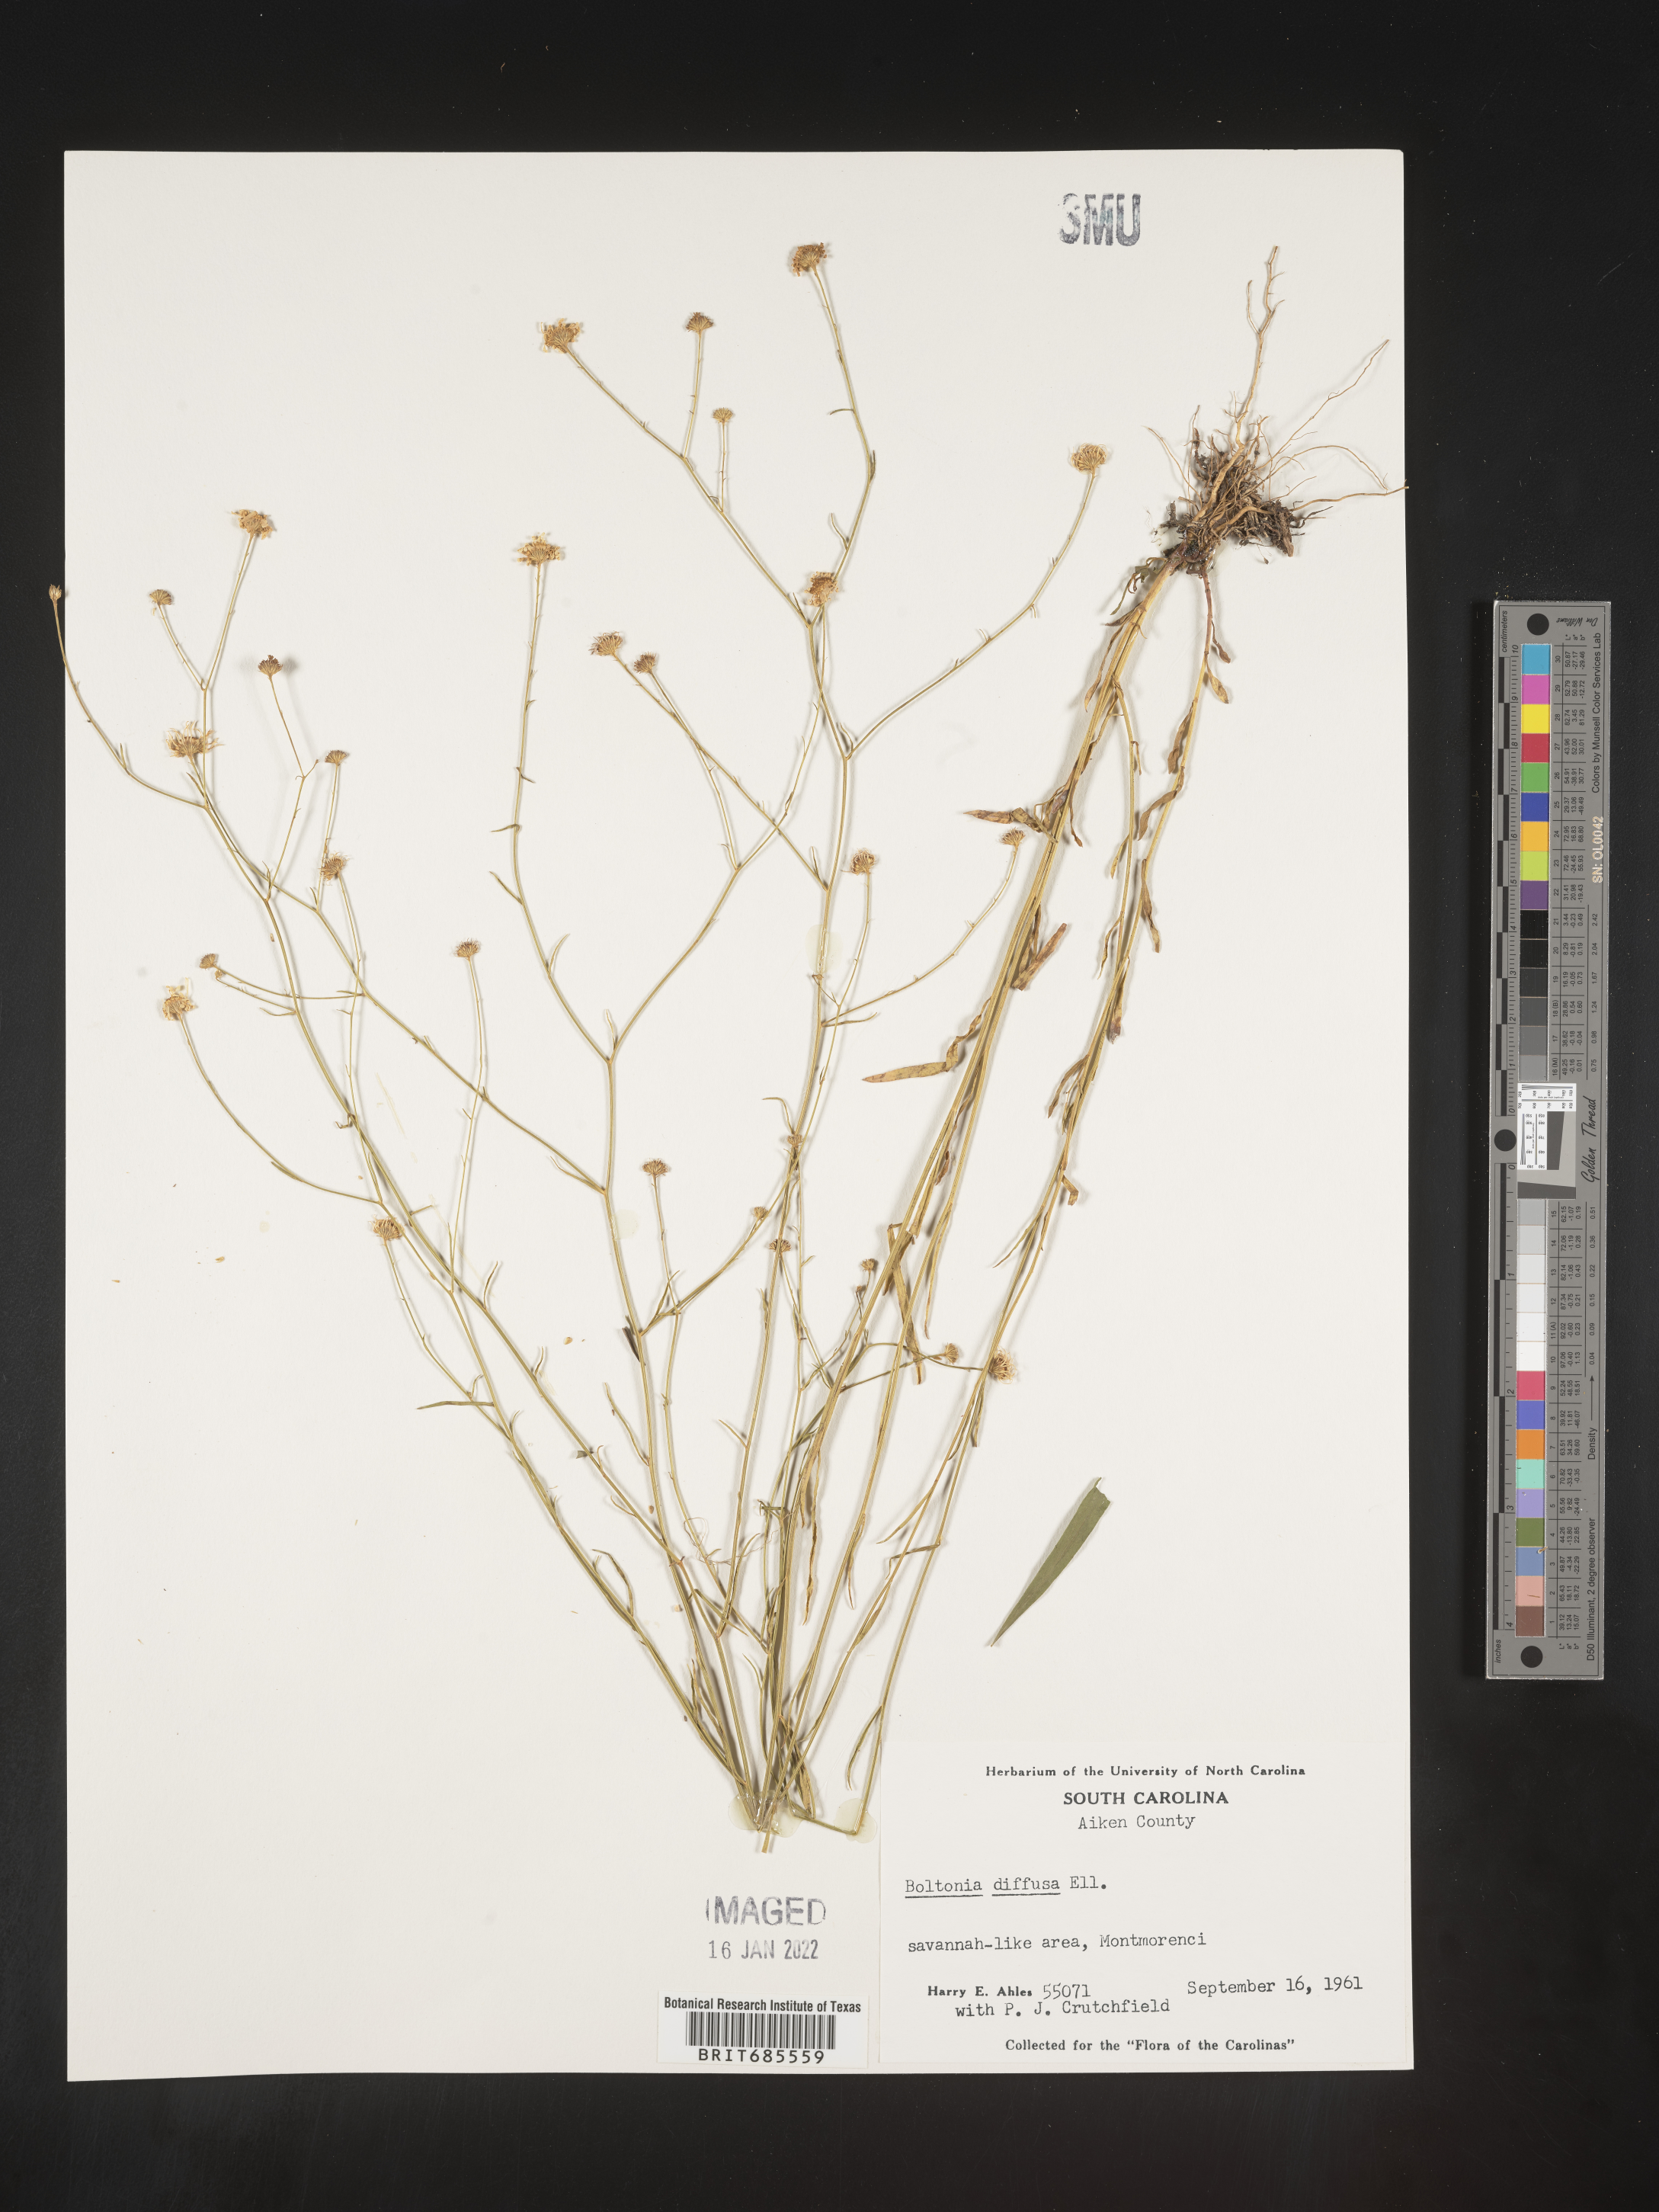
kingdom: Plantae
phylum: Tracheophyta
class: Magnoliopsida
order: Asterales
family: Asteraceae
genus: Boltonia
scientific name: Boltonia diffusa
